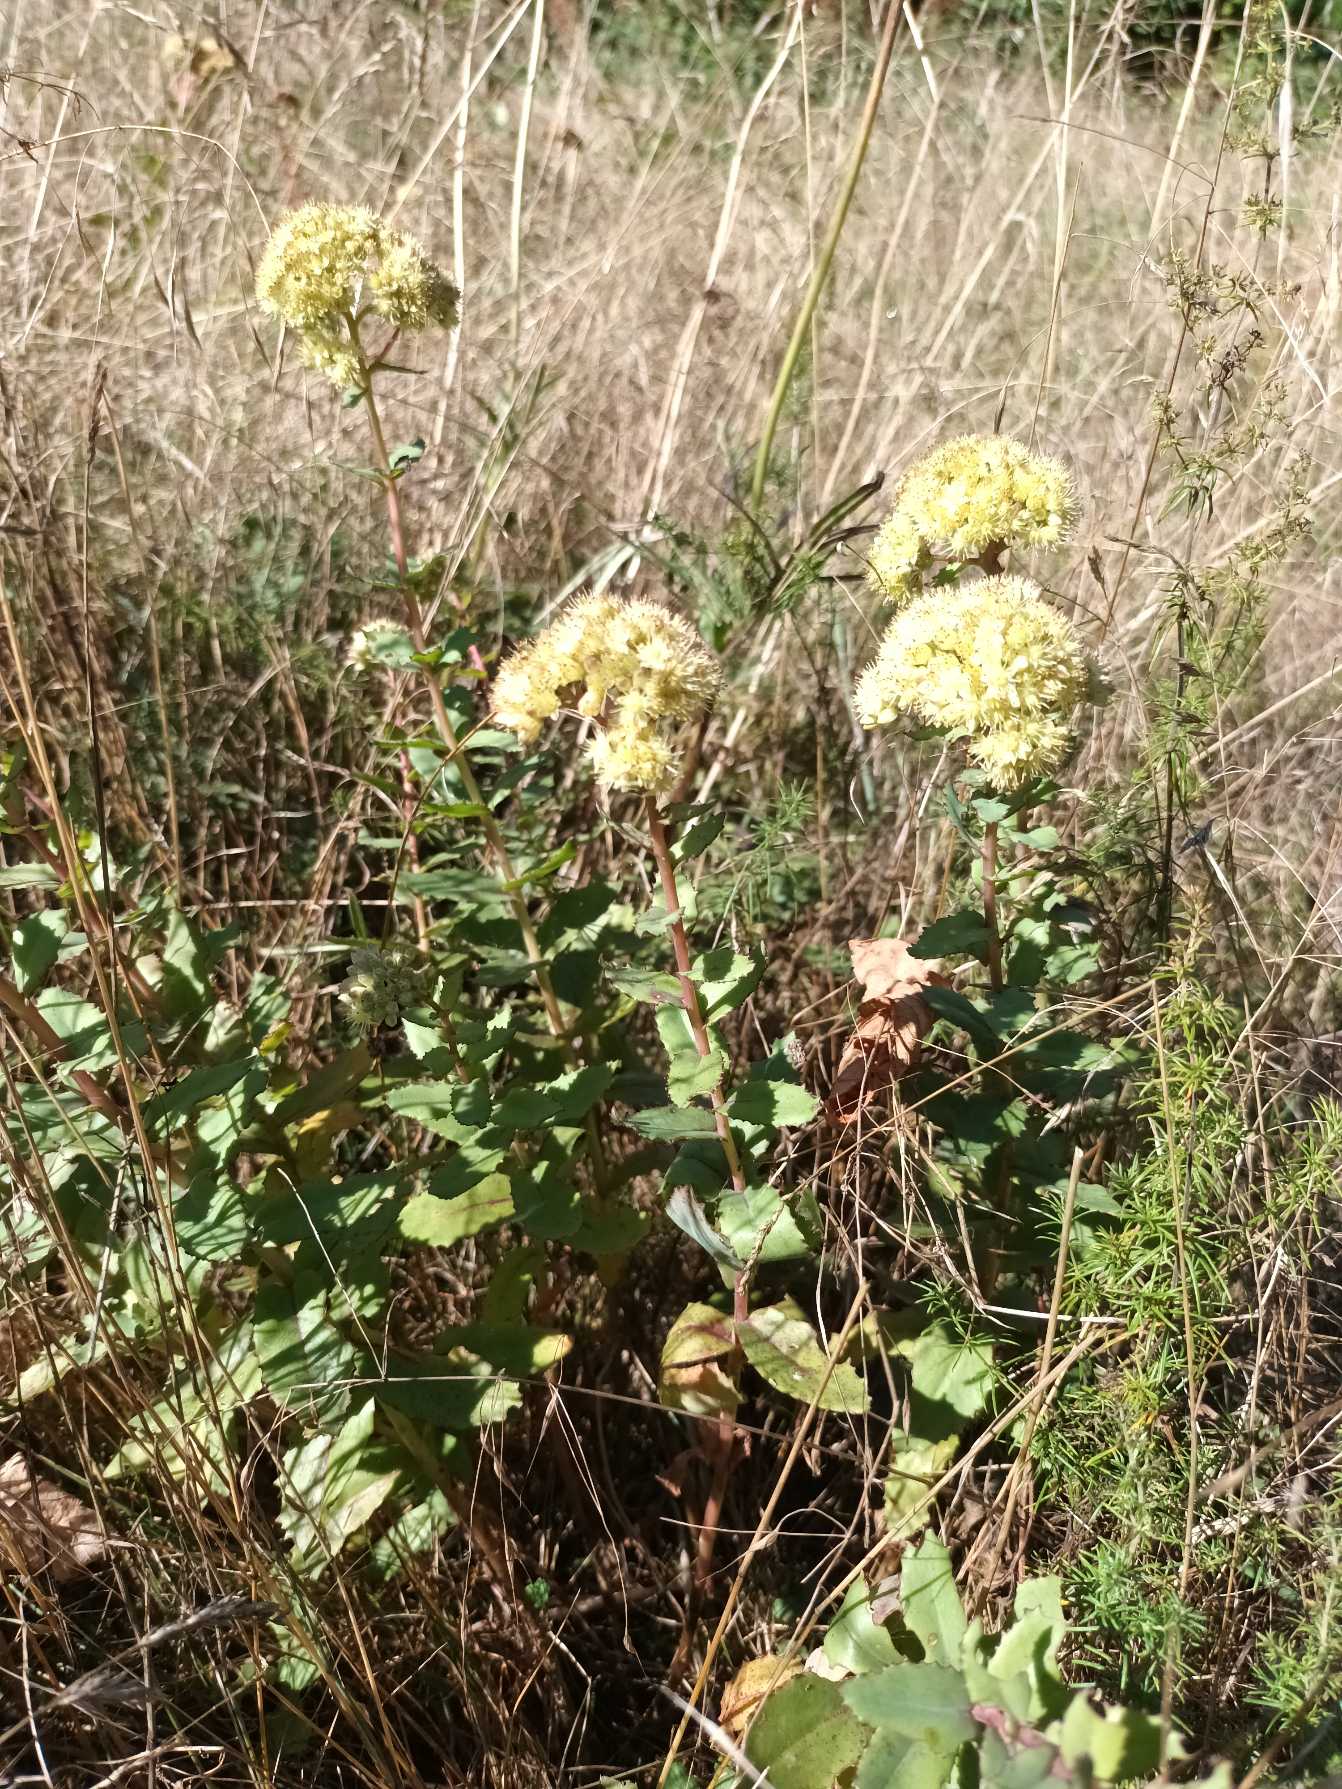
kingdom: Plantae
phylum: Tracheophyta
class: Magnoliopsida
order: Saxifragales
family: Crassulaceae
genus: Hylotelephium
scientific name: Hylotelephium maximum
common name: Almindelig sankthansurt
